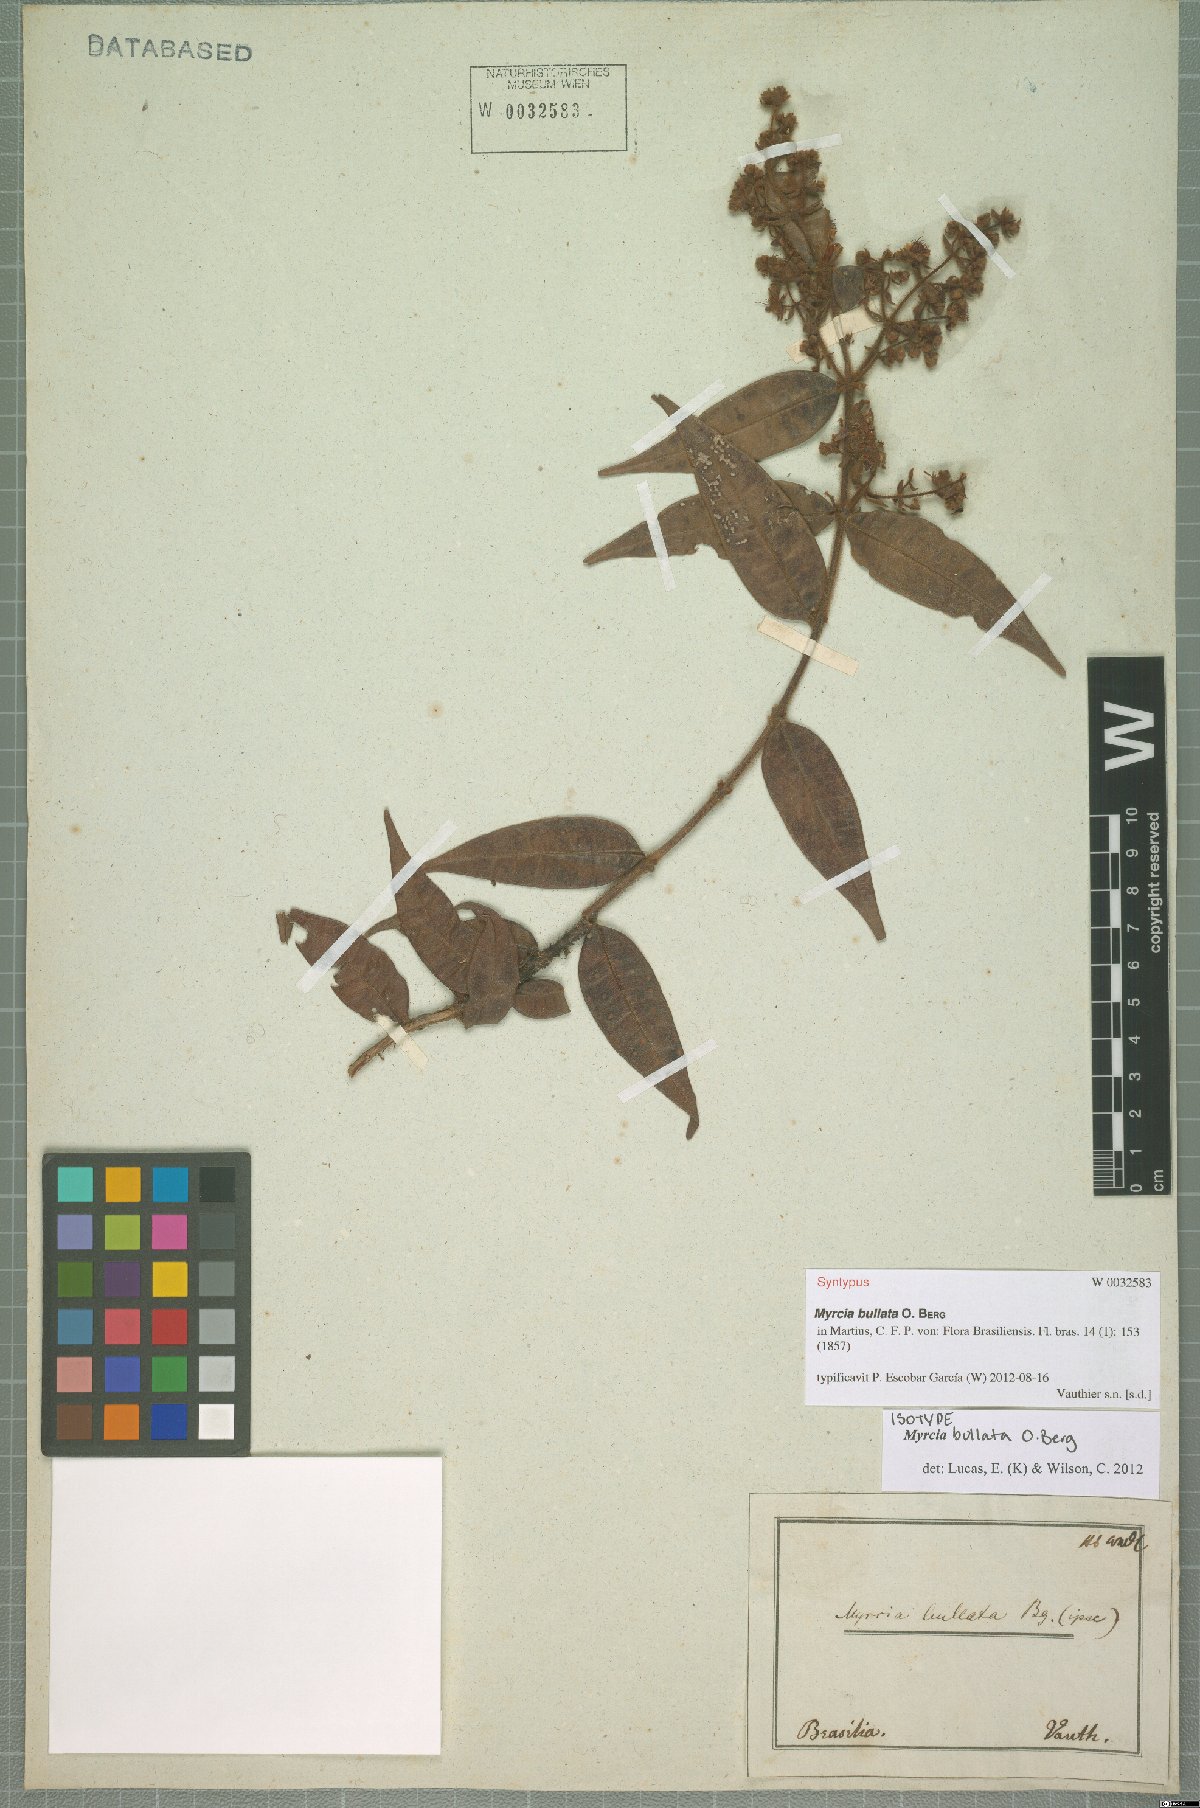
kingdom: Plantae
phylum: Tracheophyta
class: Magnoliopsida
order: Myrtales
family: Myrtaceae
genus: Myrcia
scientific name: Myrcia bullata
